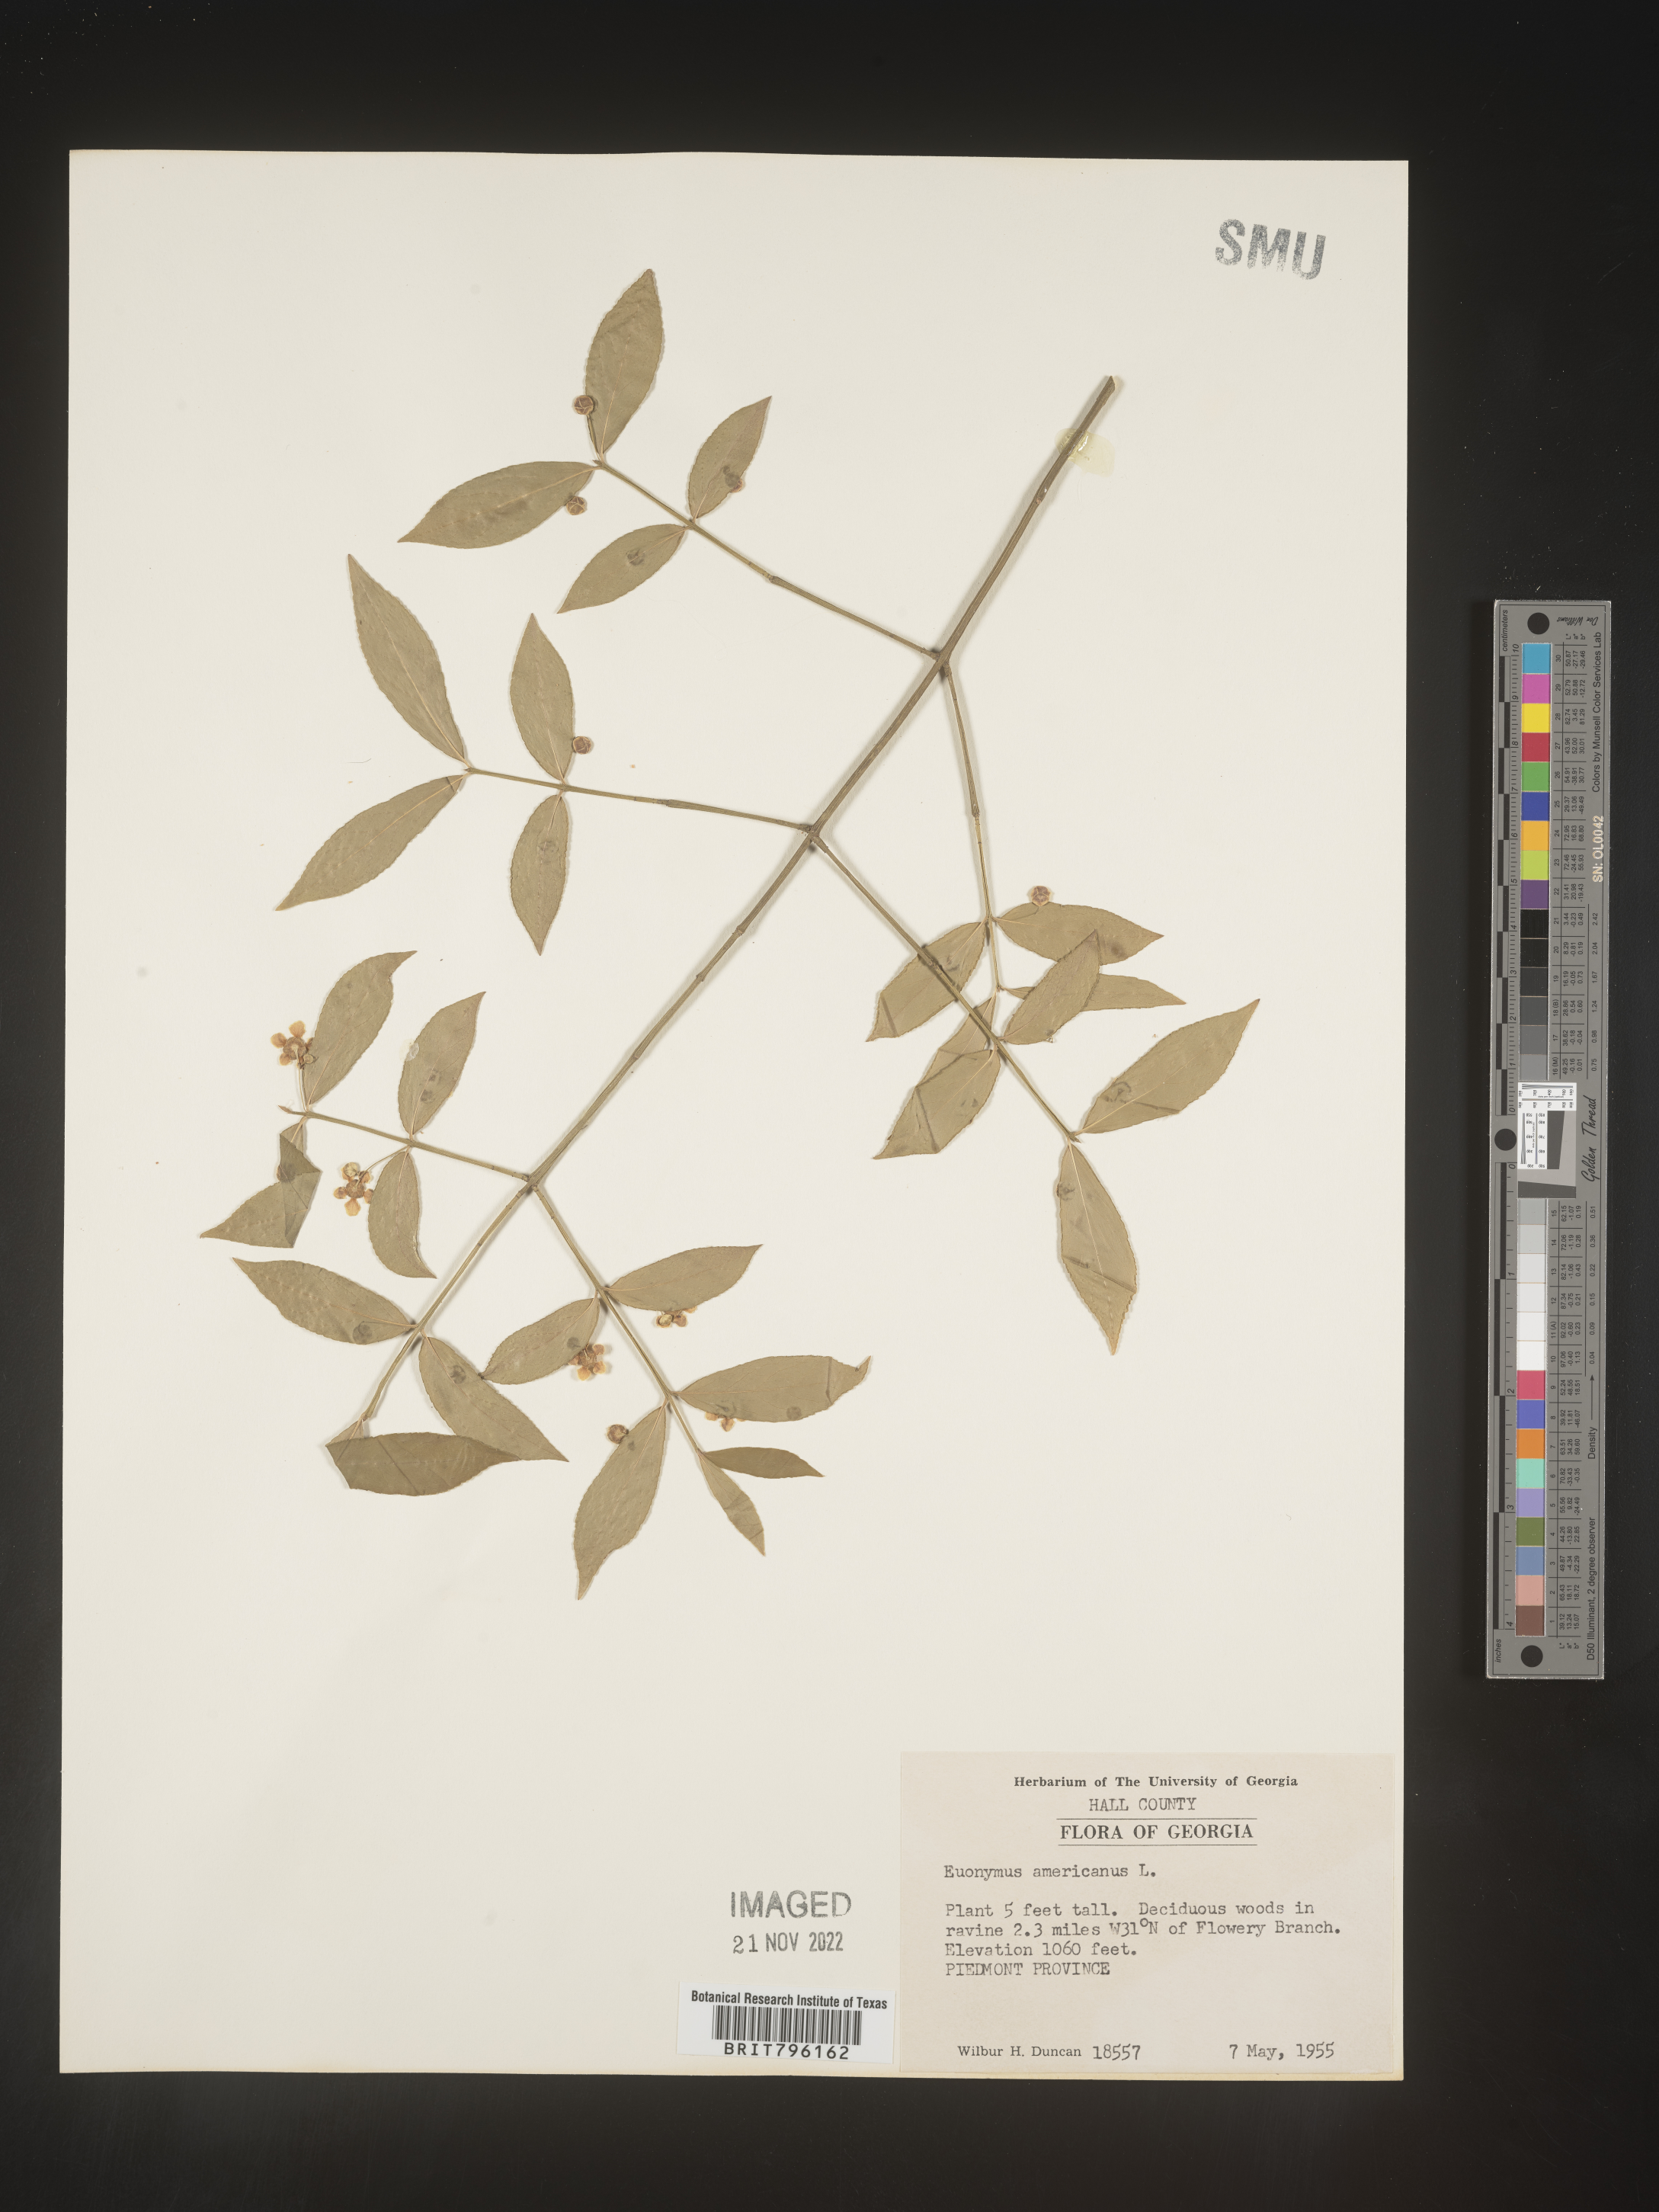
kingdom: Plantae
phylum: Tracheophyta
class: Magnoliopsida
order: Celastrales
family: Celastraceae
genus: Euonymus
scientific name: Euonymus americanus
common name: Bursting-heart
